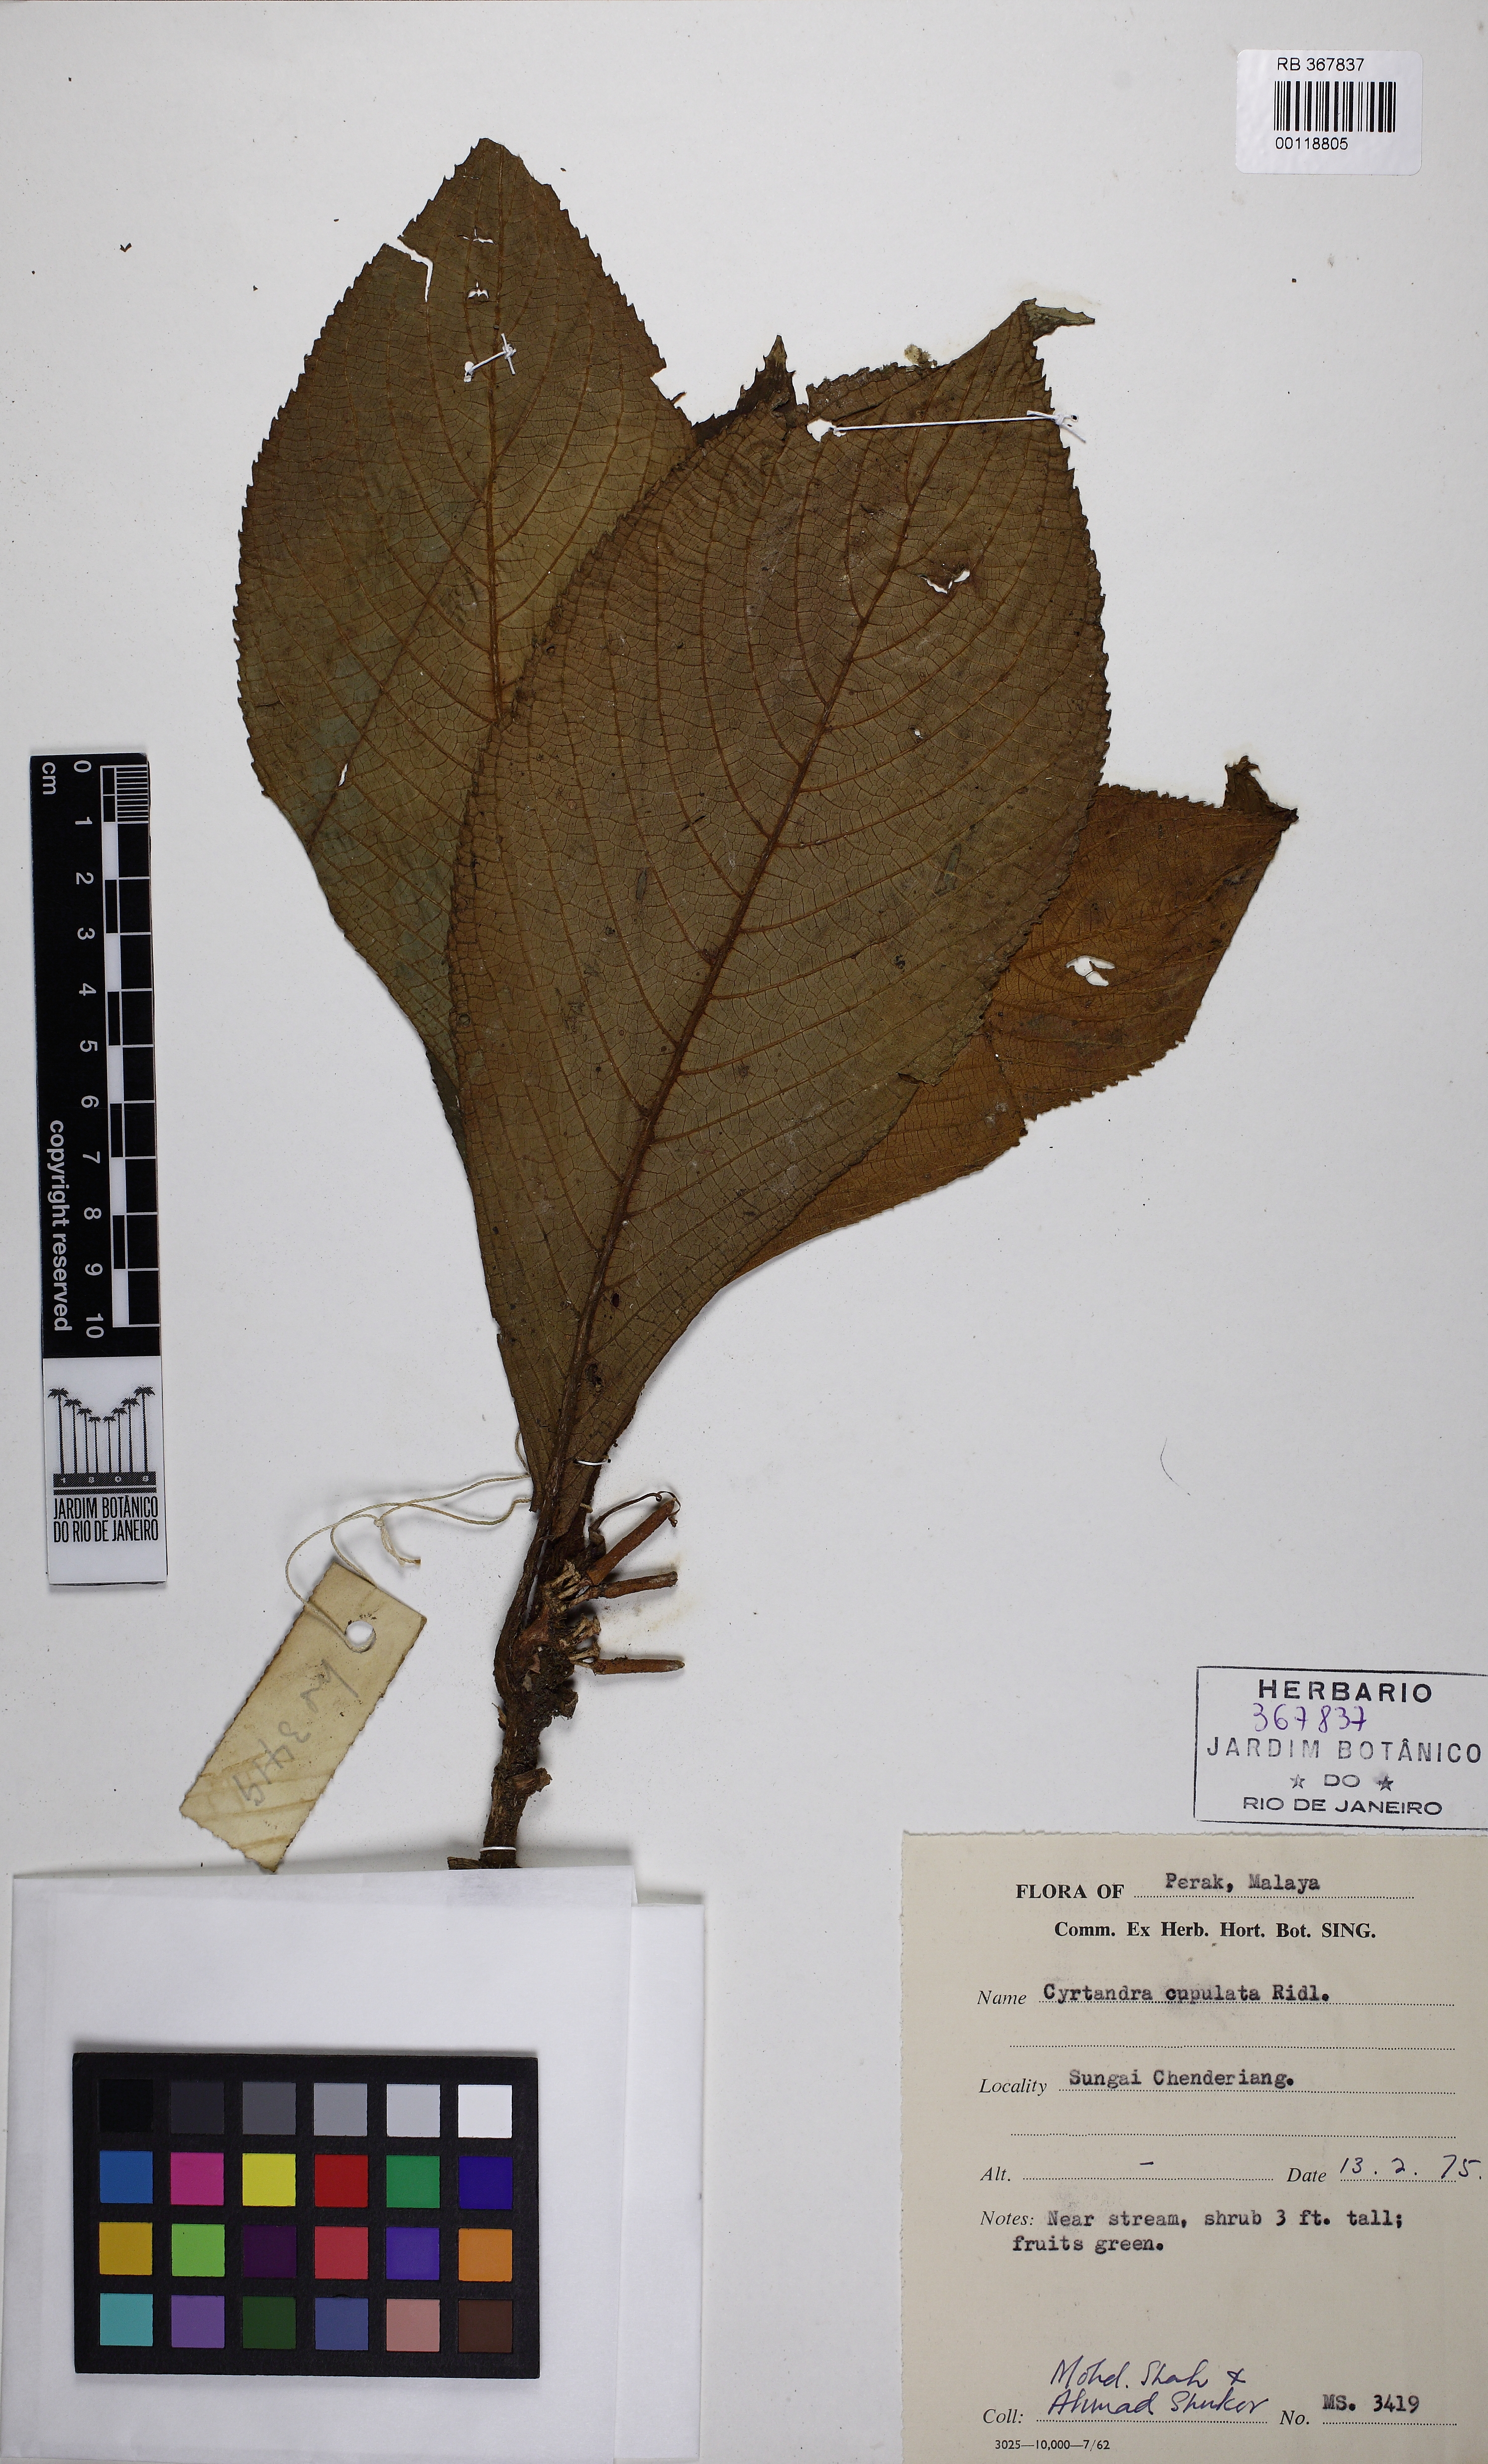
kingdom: Plantae
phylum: Tracheophyta
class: Magnoliopsida
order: Lamiales
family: Gesneriaceae
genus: Cyrtandra
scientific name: Cyrtandra cupulata
